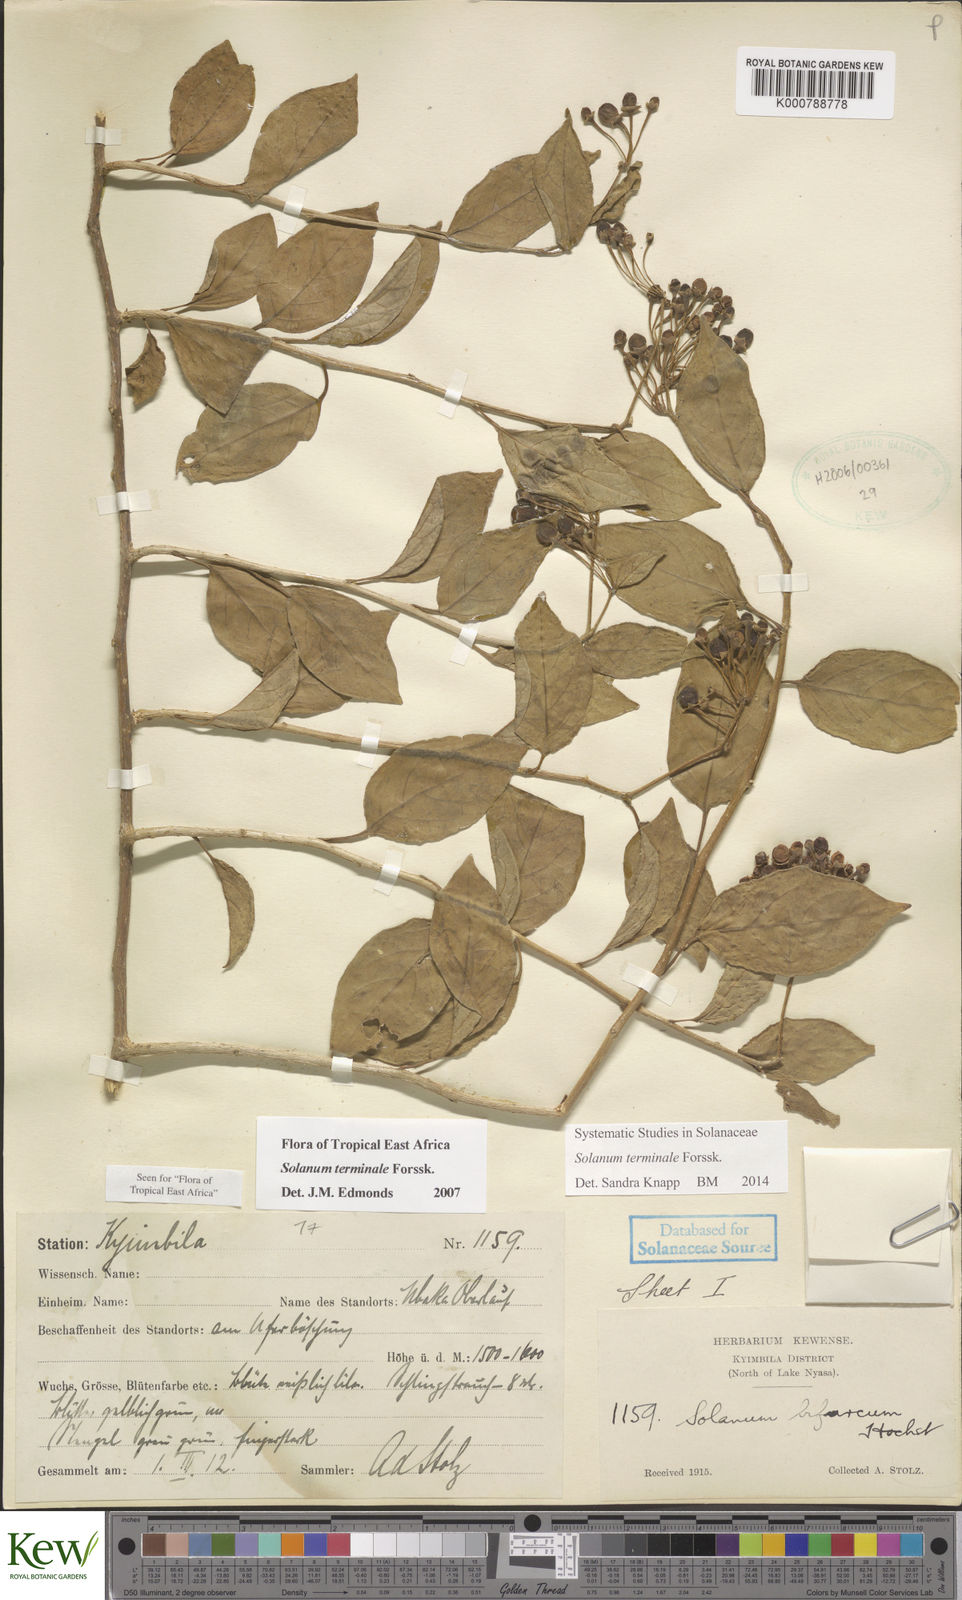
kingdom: Plantae
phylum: Tracheophyta
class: Magnoliopsida
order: Solanales
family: Solanaceae
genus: Solanum
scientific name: Solanum terminale
